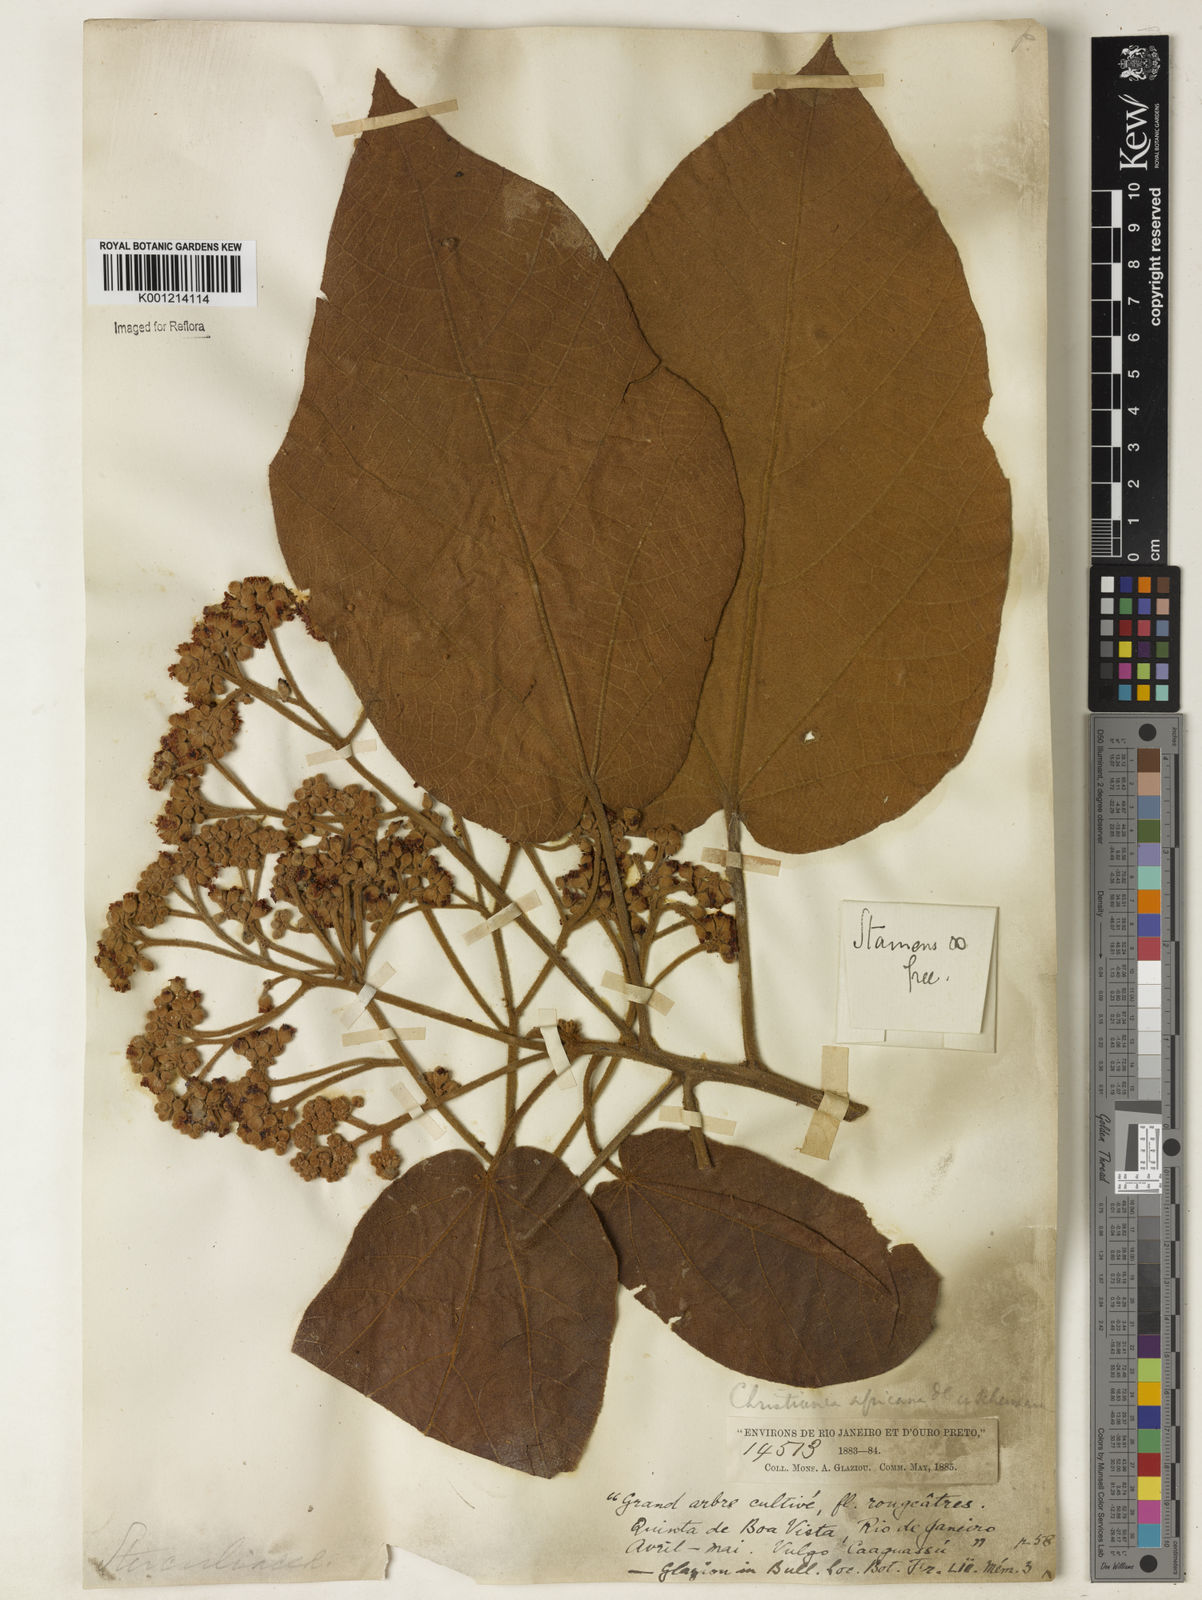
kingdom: Plantae
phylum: Tracheophyta
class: Magnoliopsida
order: Malvales
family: Malvaceae
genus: Christiana
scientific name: Christiana africana
